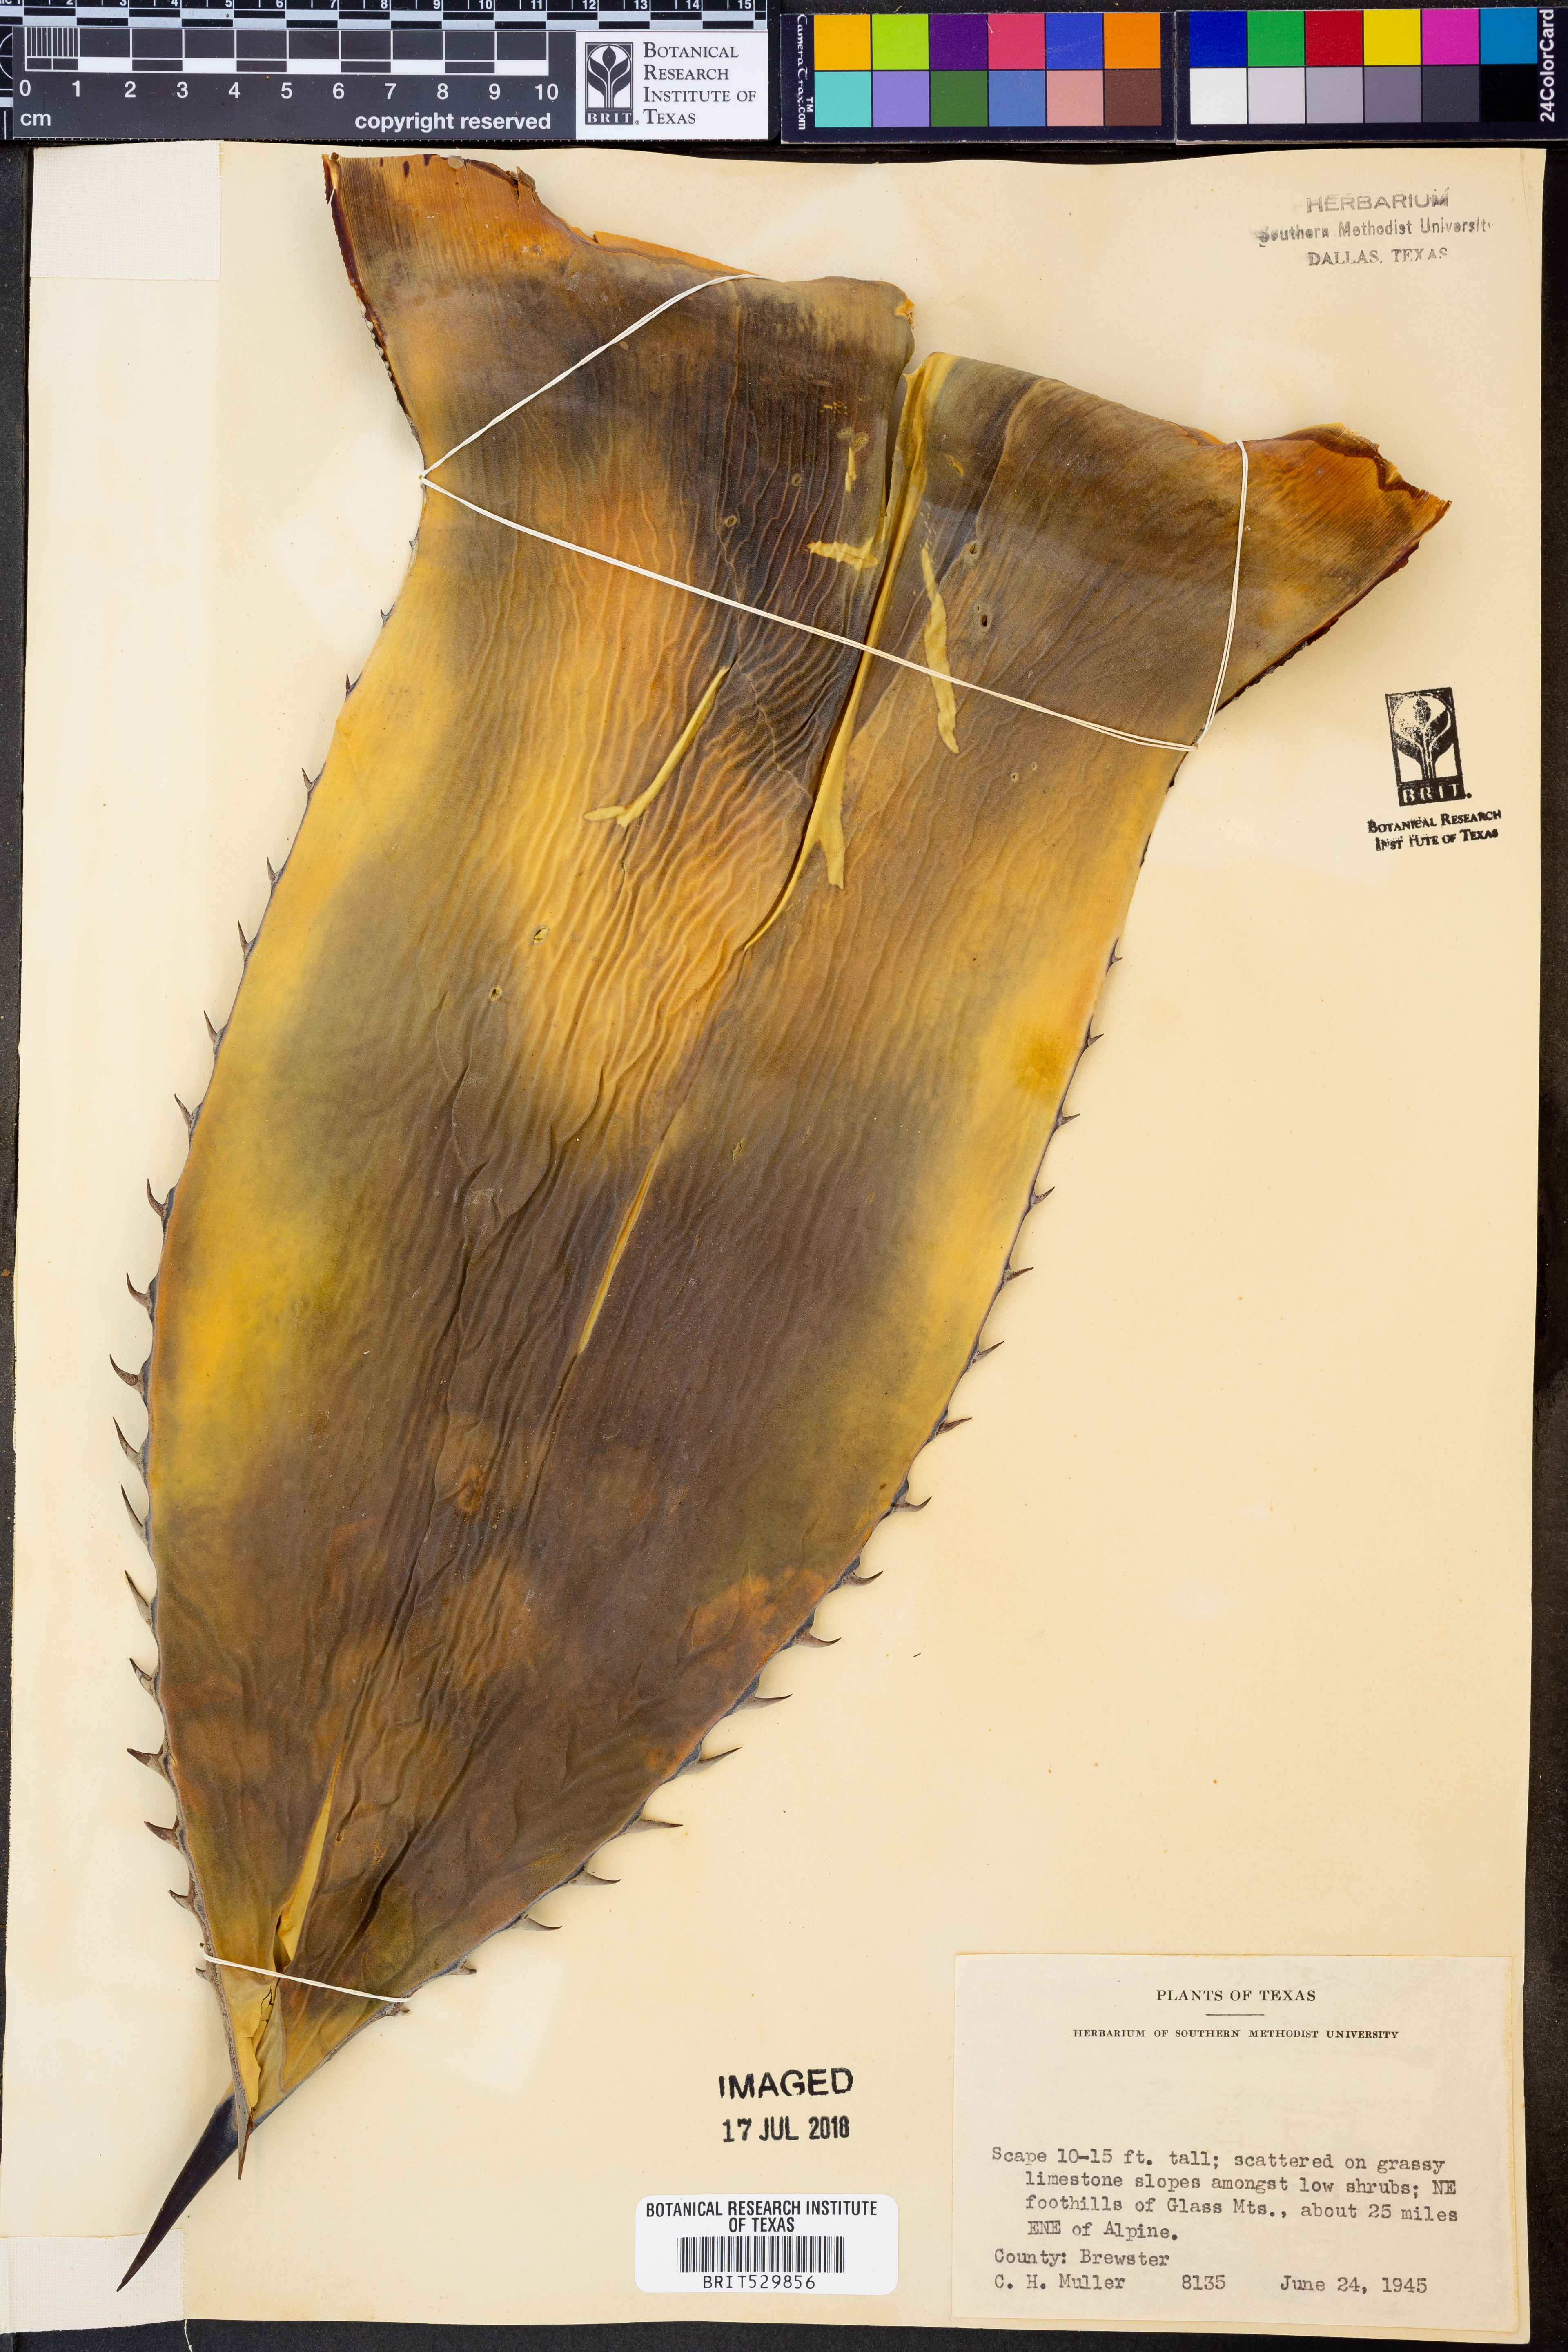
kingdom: Plantae
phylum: Tracheophyta
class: Liliopsida
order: Asparagales
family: Asparagaceae
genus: Agave
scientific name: Agave
